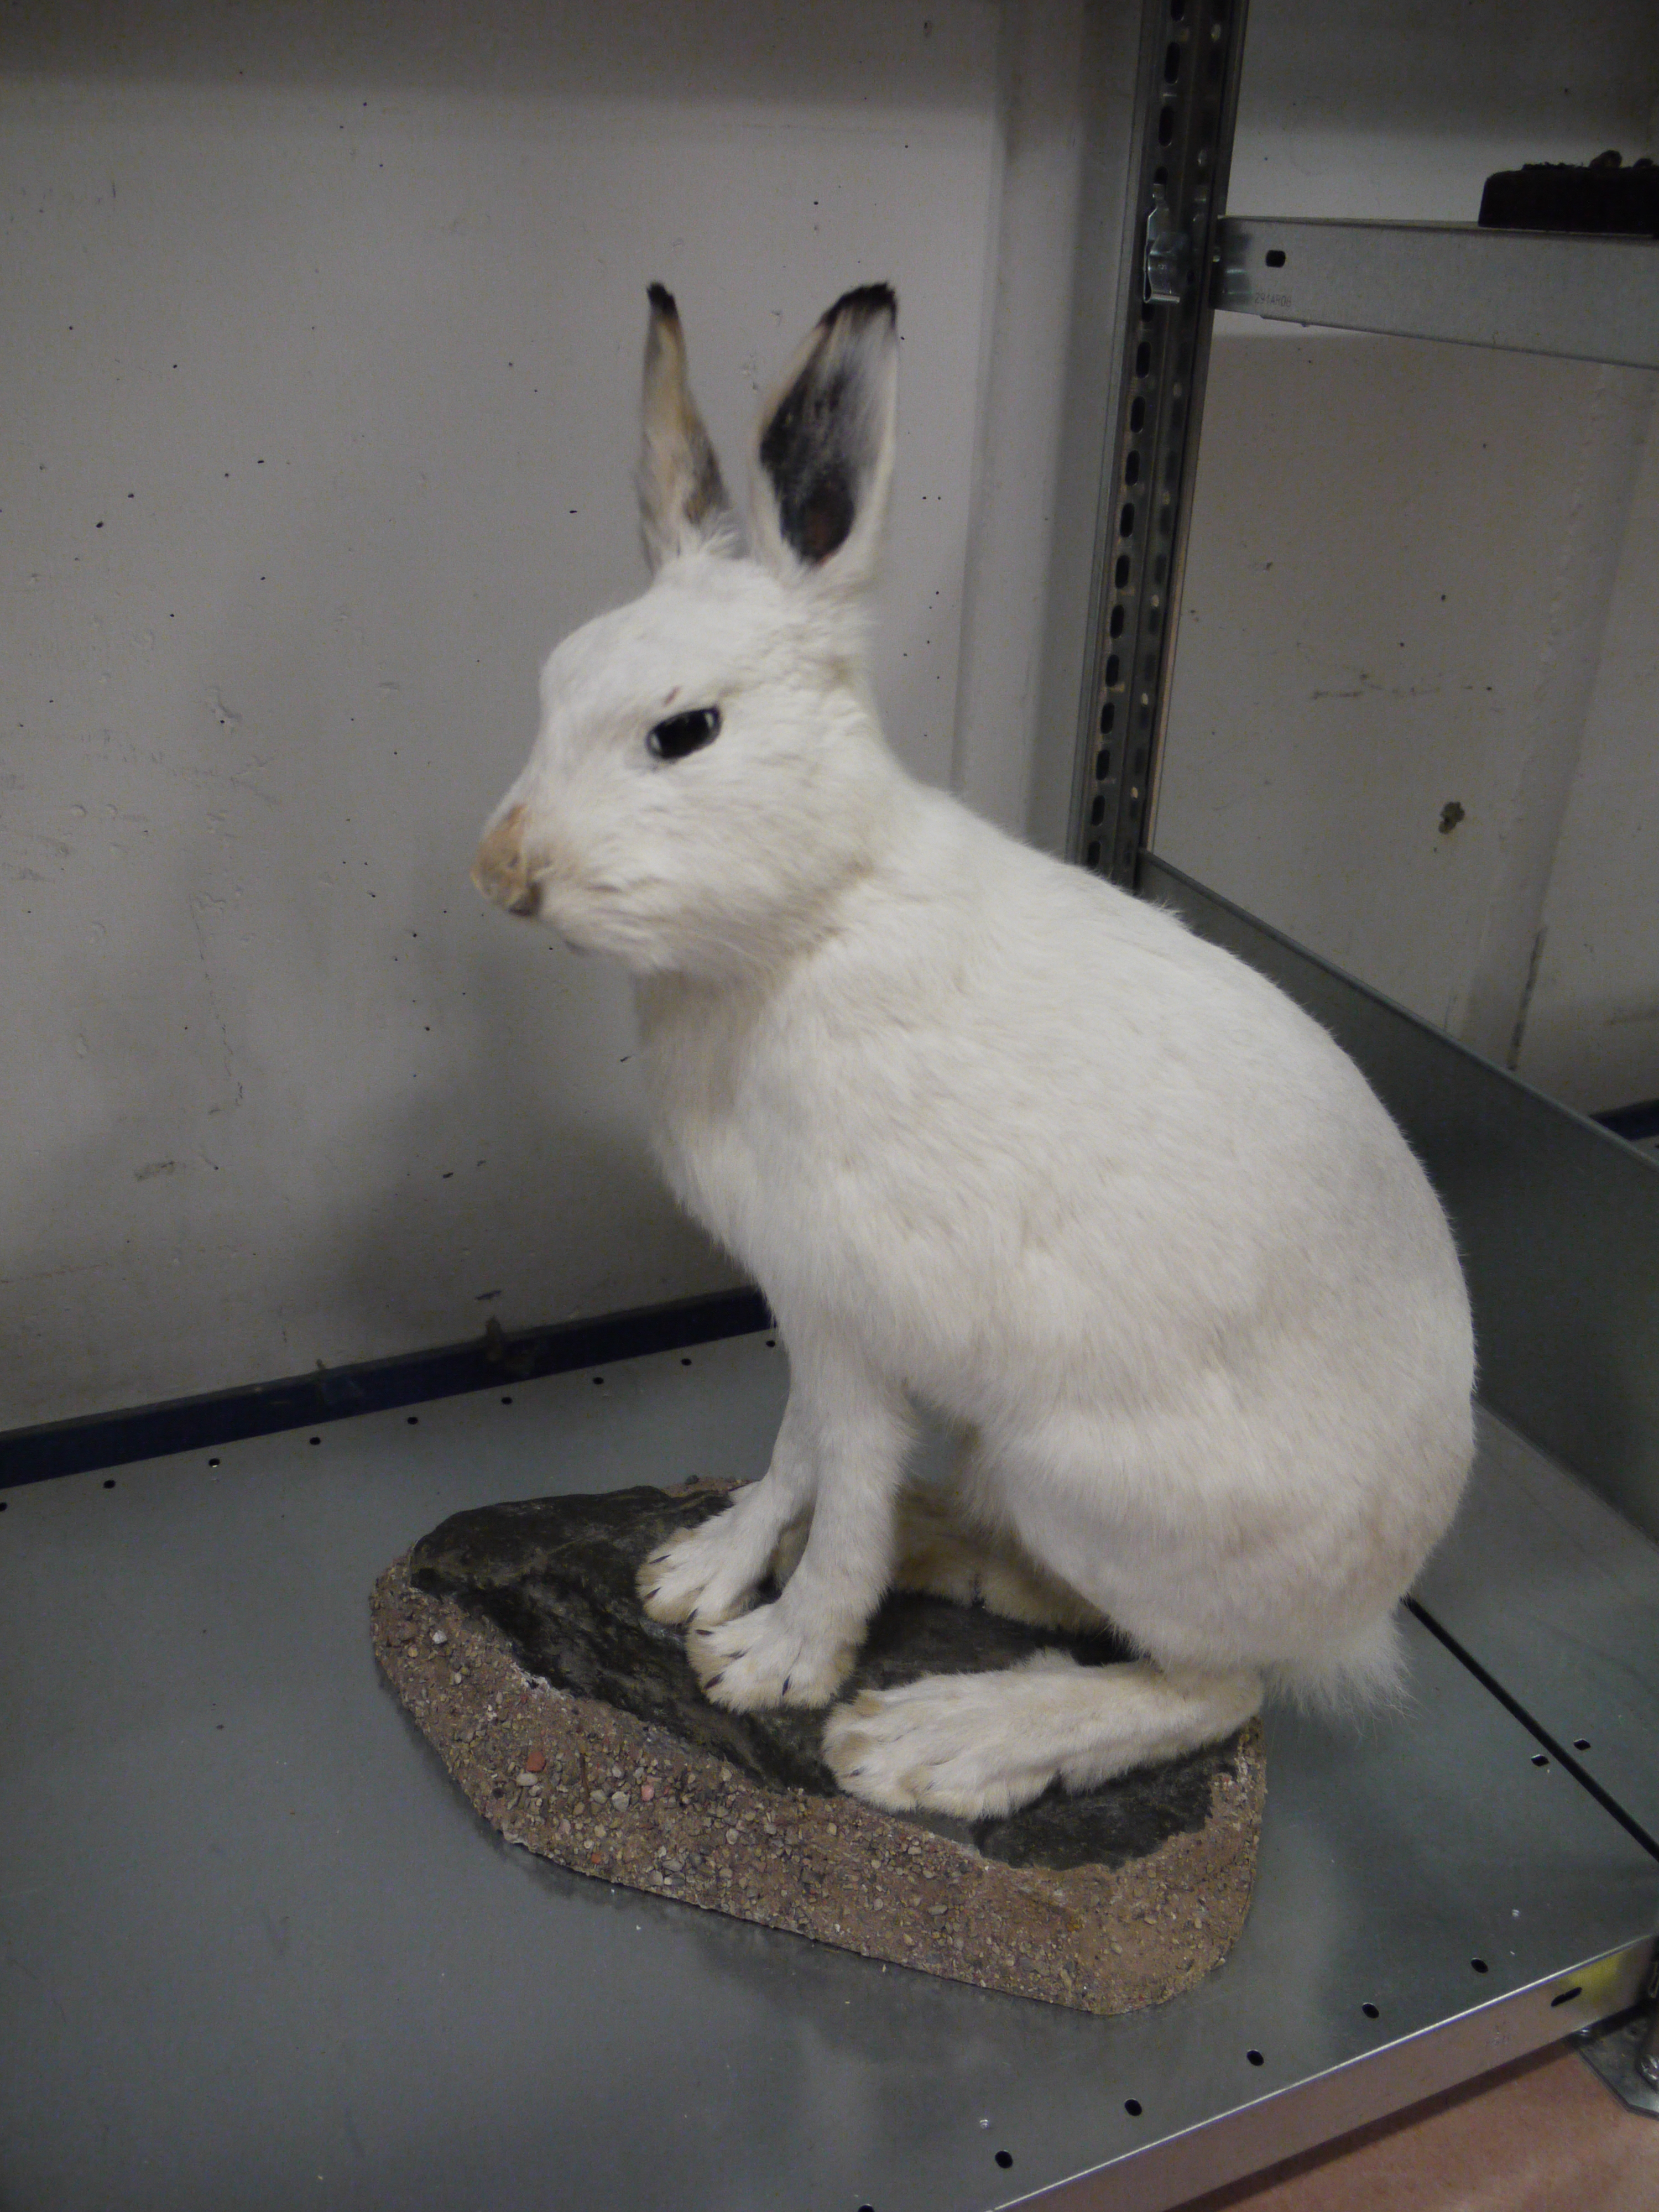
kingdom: Animalia
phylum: Chordata
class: Mammalia
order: Lagomorpha
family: Leporidae
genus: Lepus
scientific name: Lepus timidus
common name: Mountain hare
